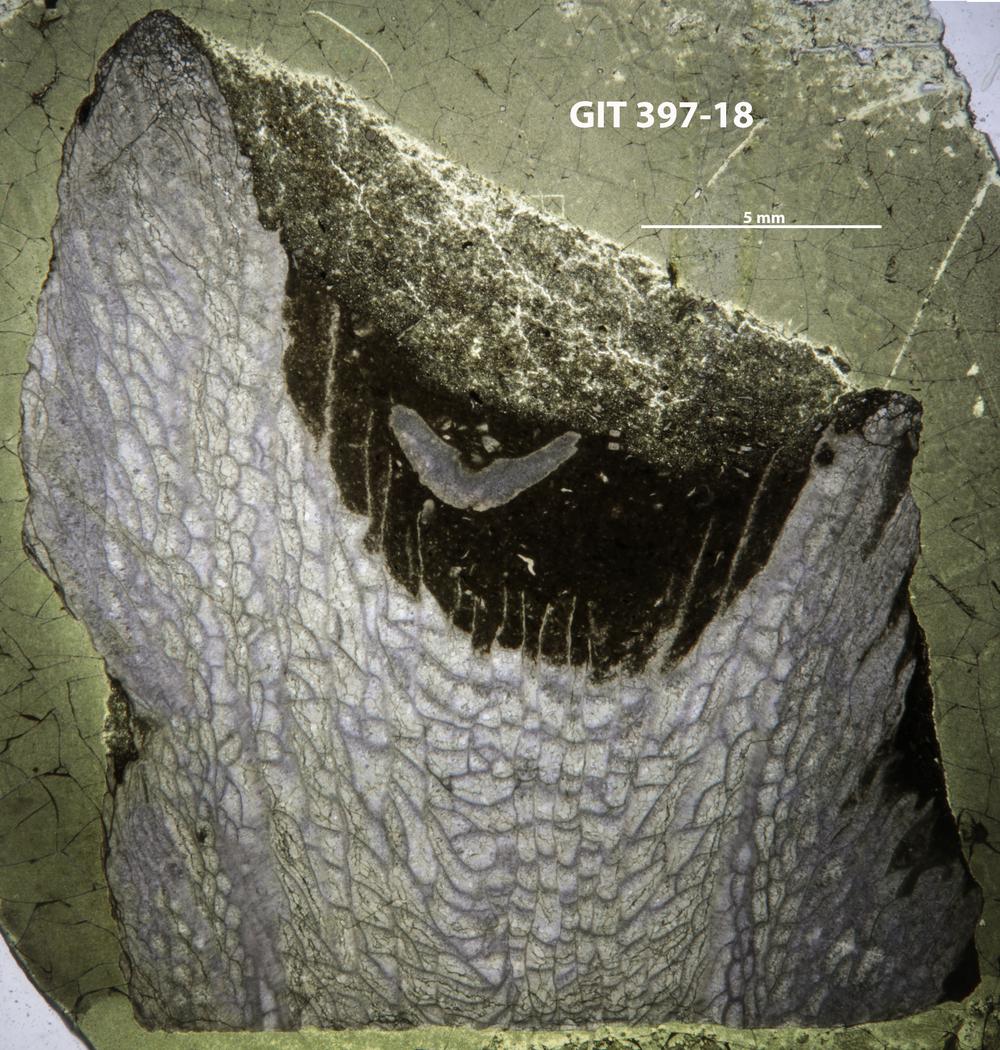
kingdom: Animalia
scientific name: Animalia
